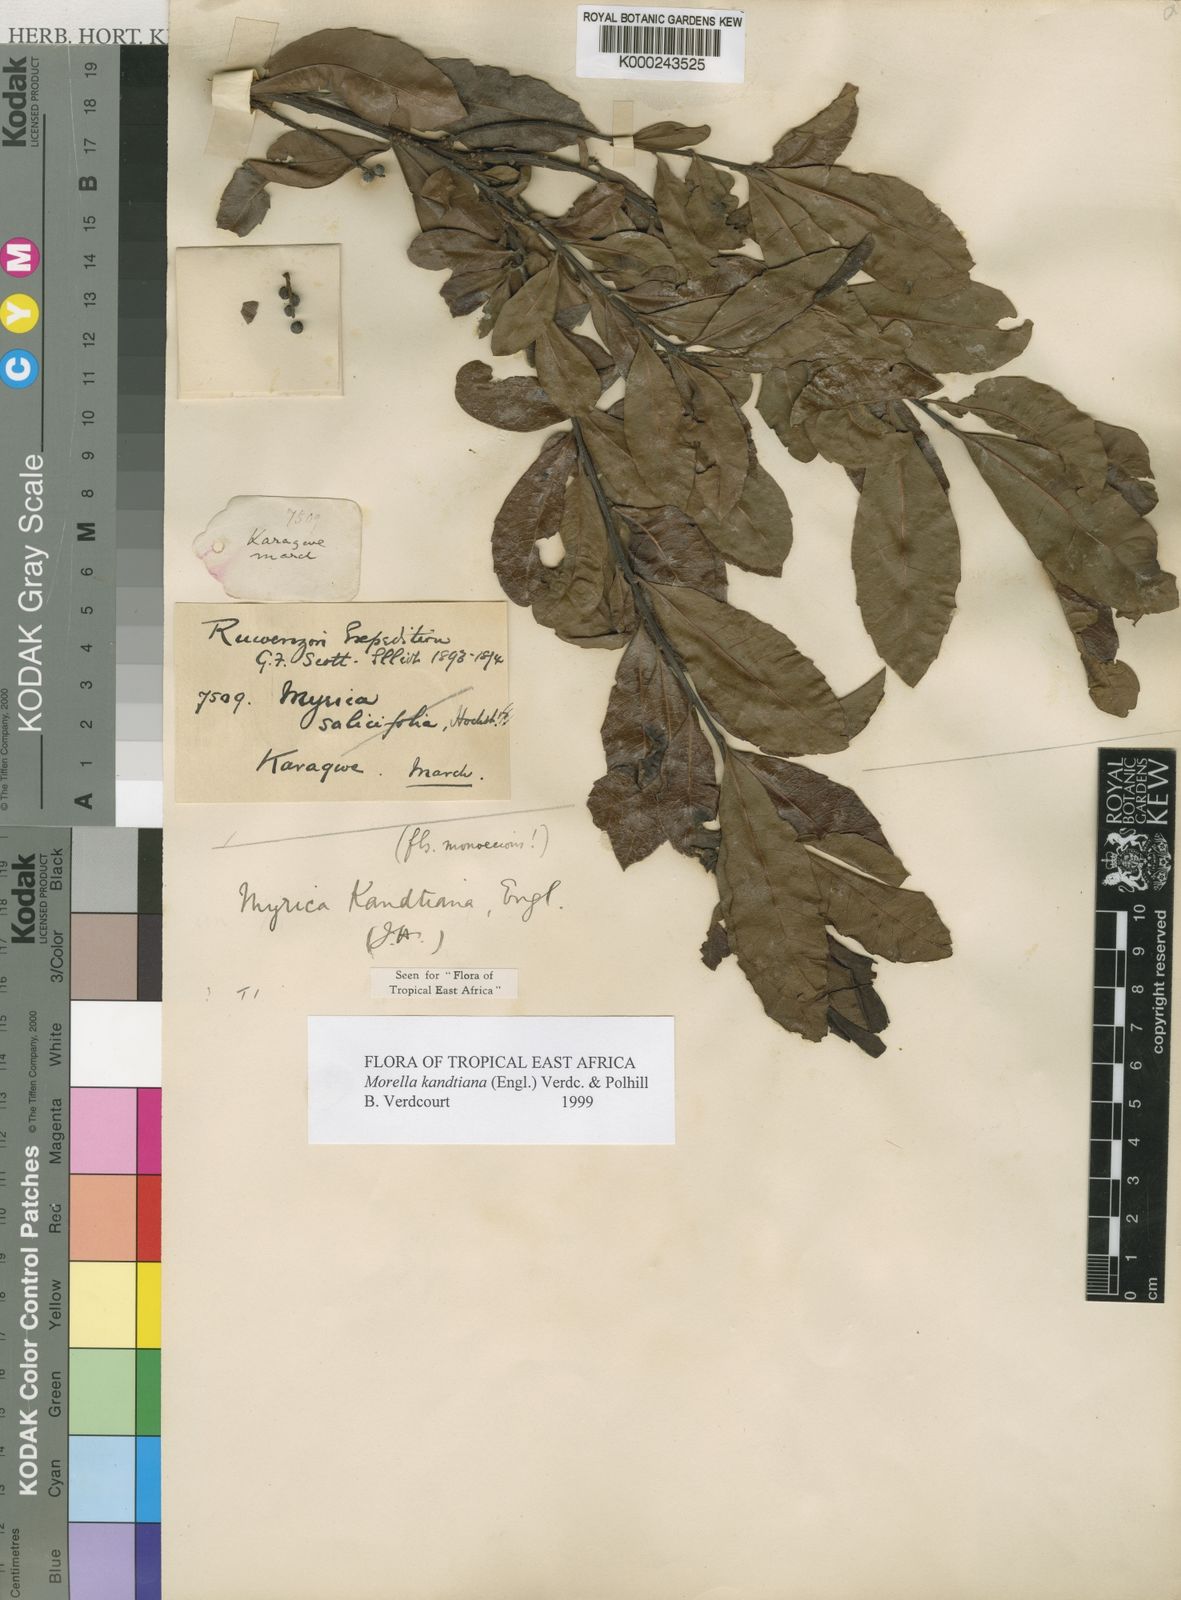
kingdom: Plantae
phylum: Tracheophyta
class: Magnoliopsida
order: Fagales
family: Myricaceae
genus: Morella
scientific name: Morella kandtiana
